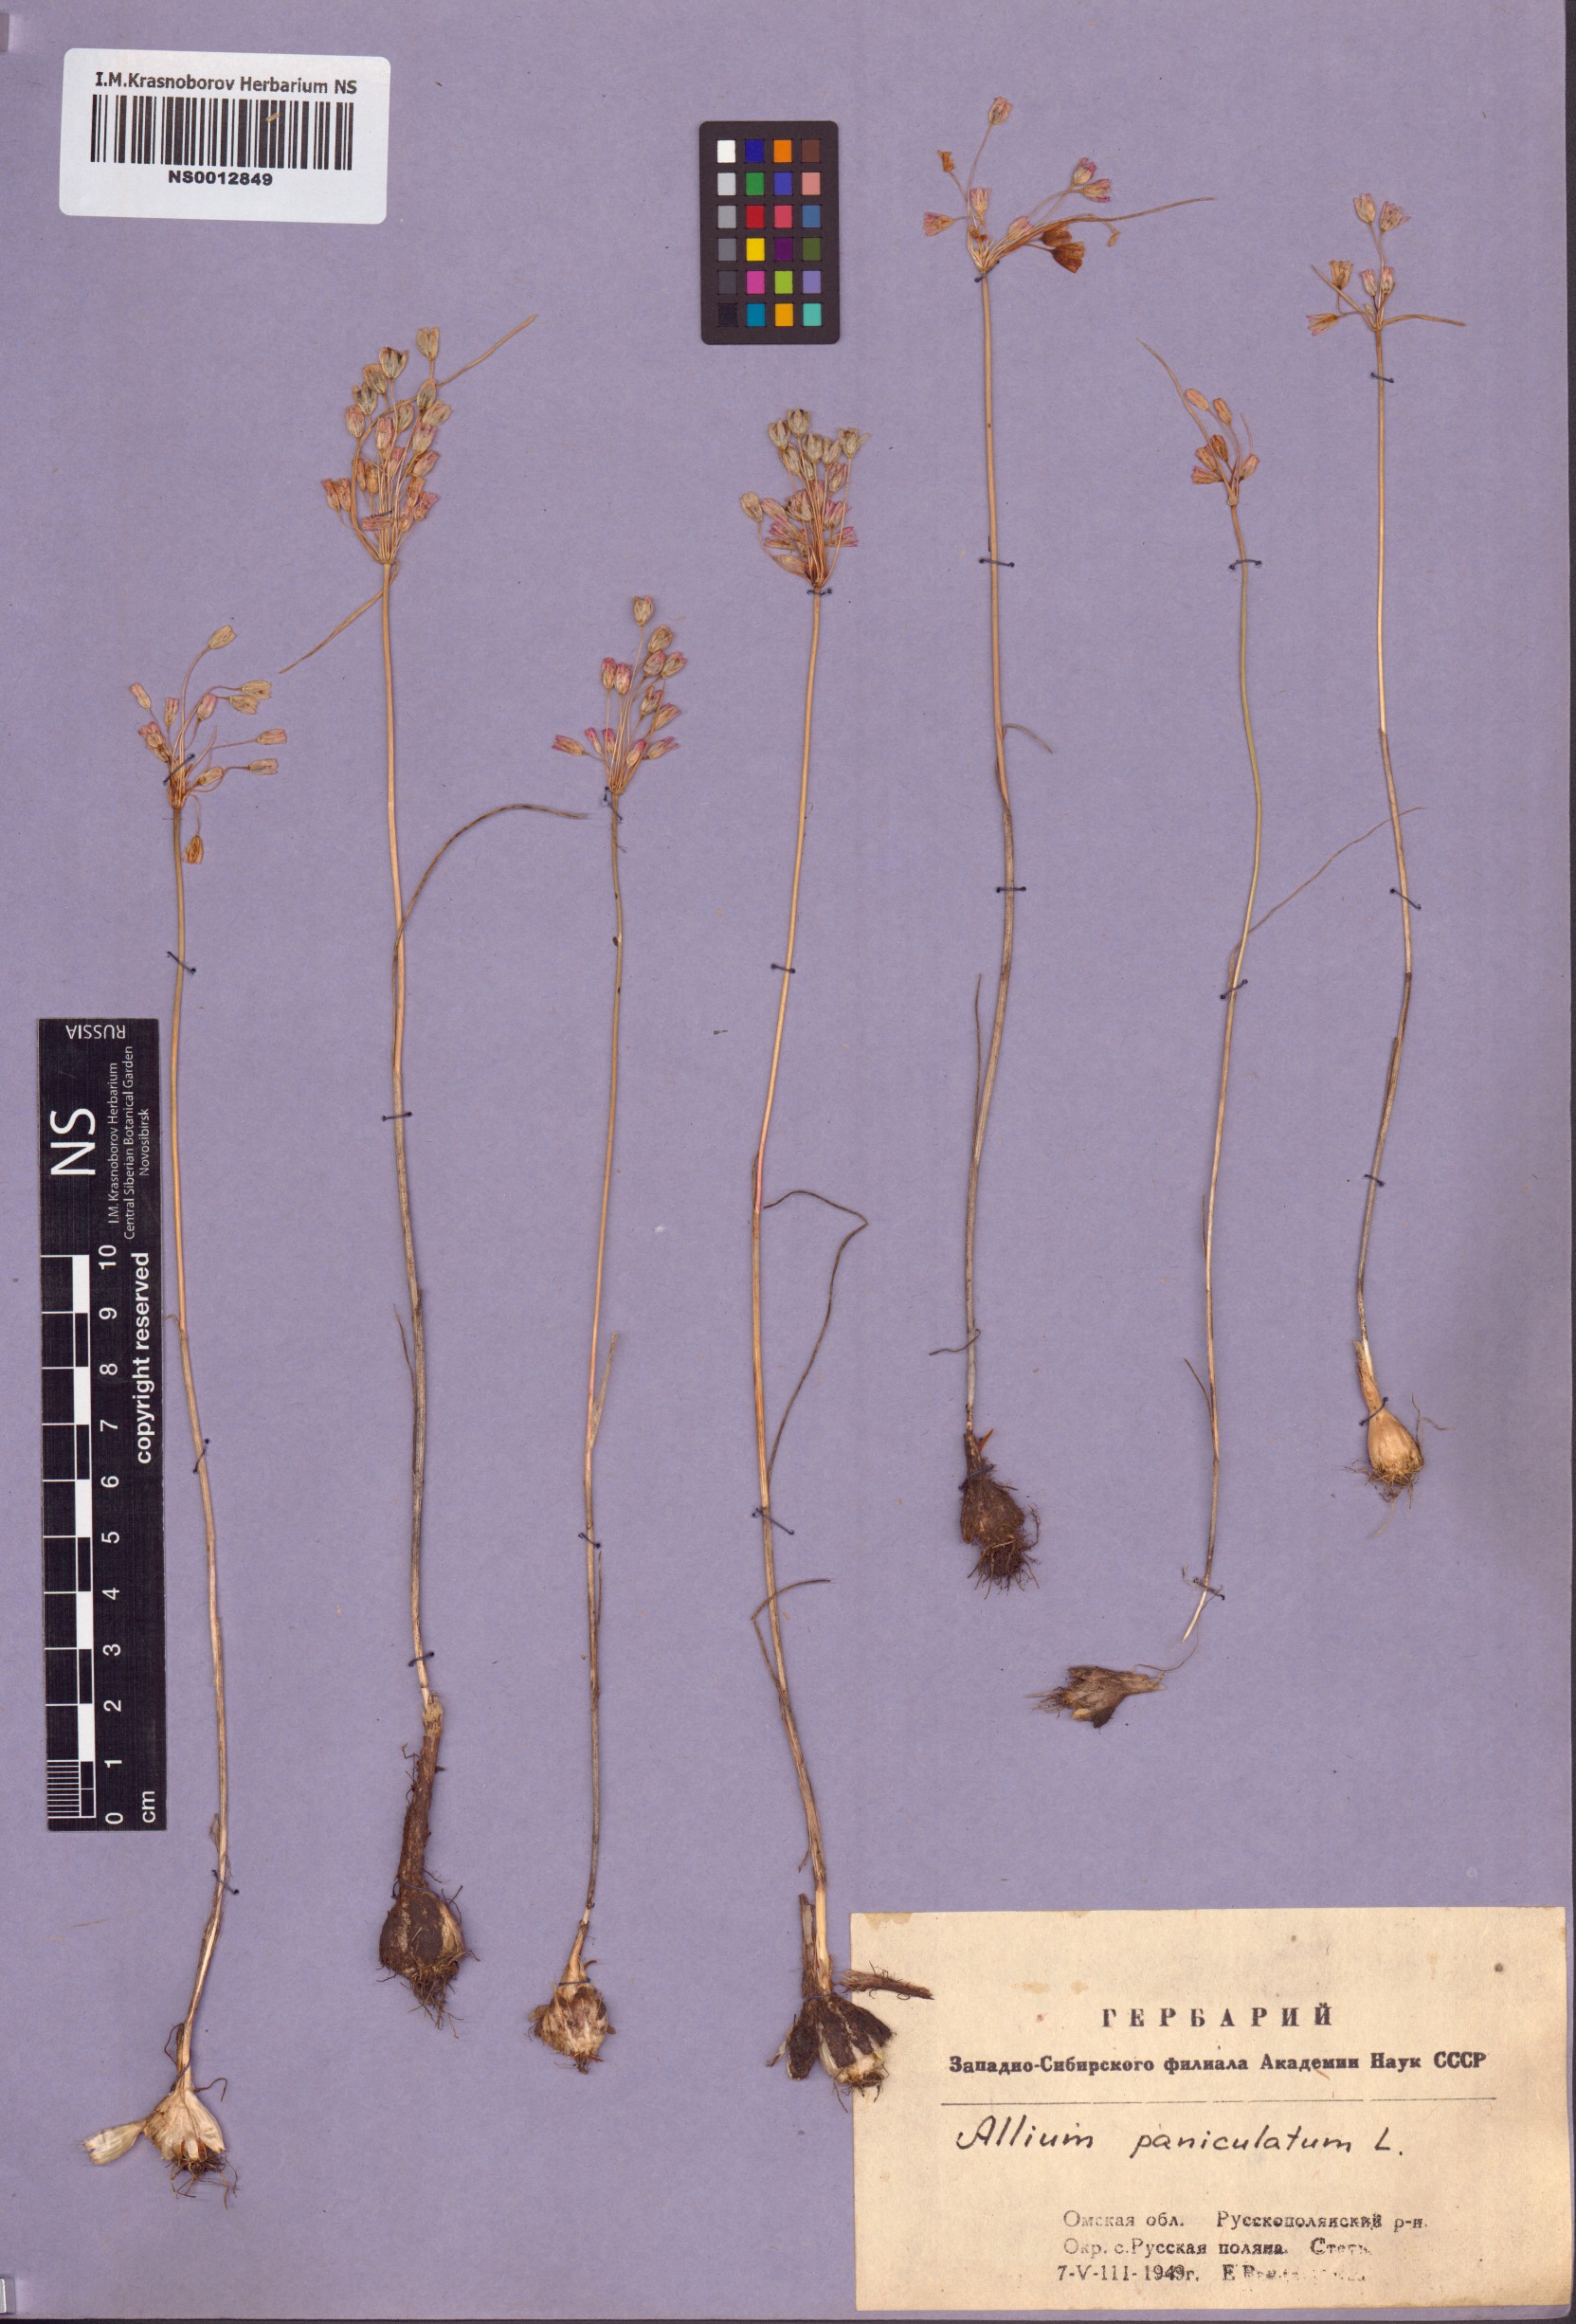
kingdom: Plantae
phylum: Tracheophyta
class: Liliopsida
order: Asparagales
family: Amaryllidaceae
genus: Allium
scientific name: Allium paniculatum
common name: Pale garlic
